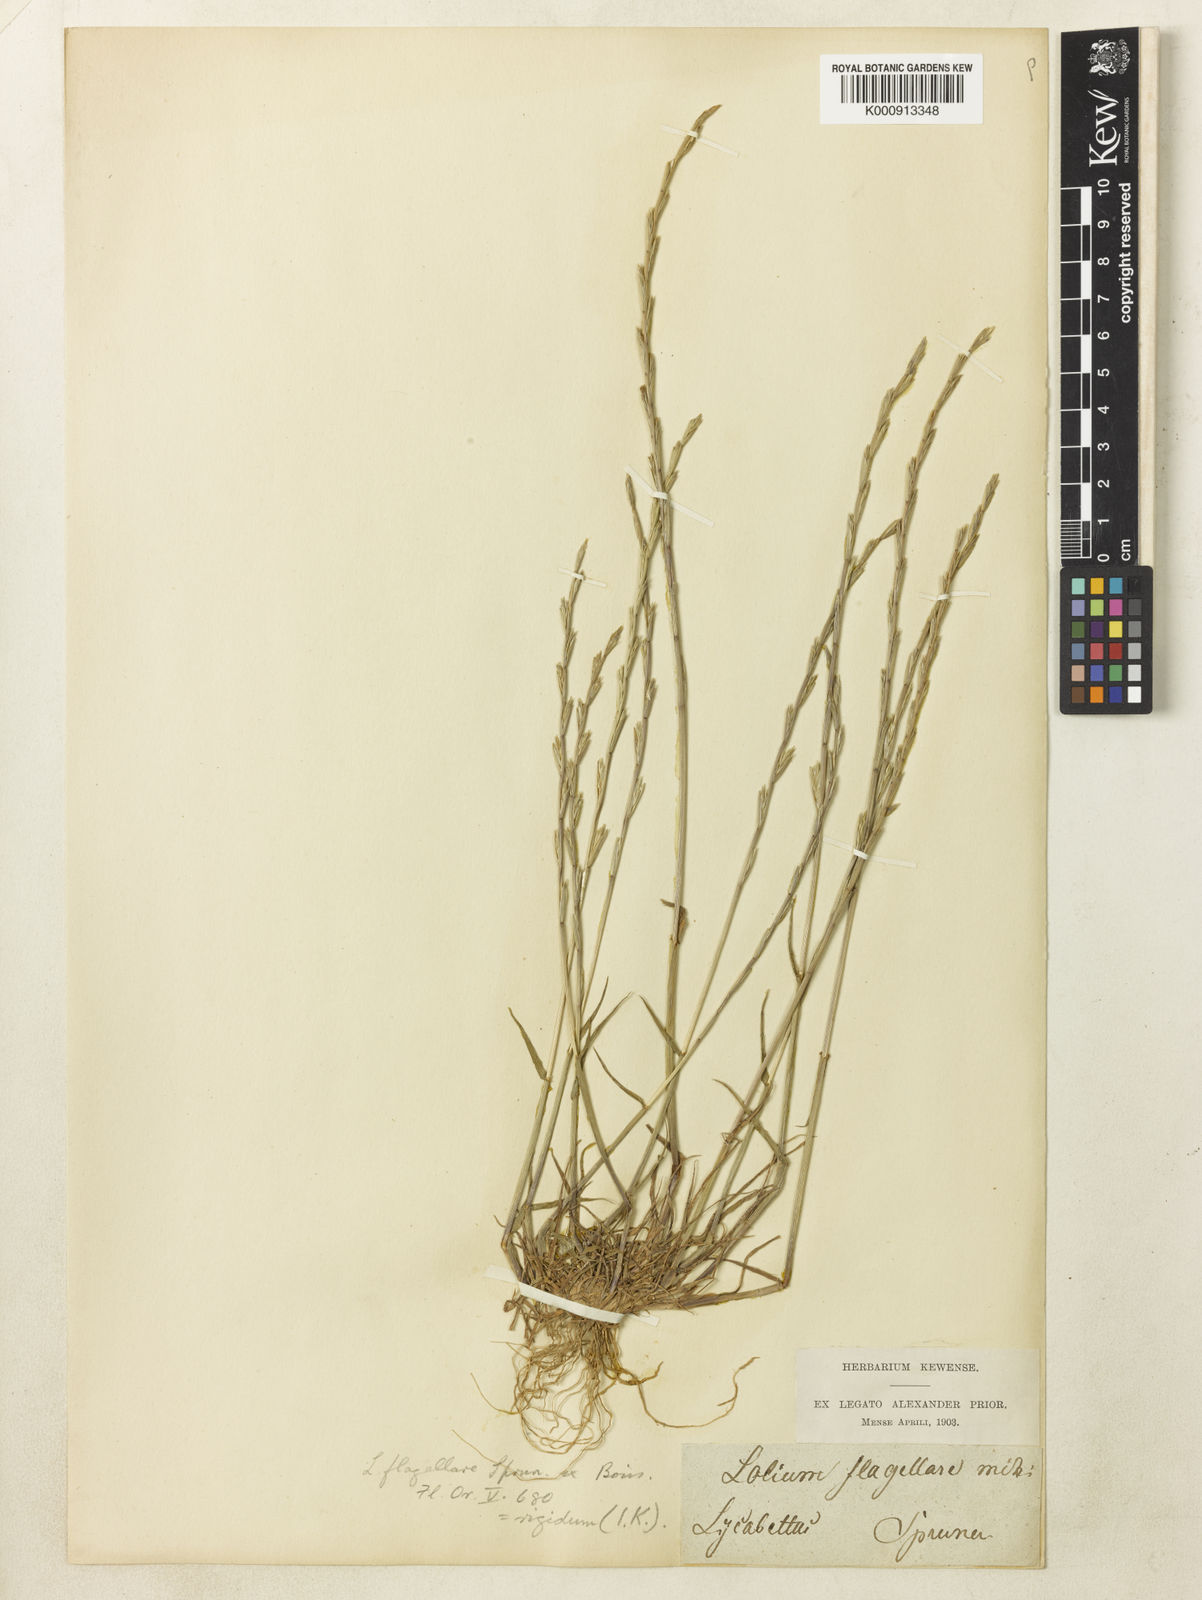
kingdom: Plantae
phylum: Tracheophyta
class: Liliopsida
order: Poales
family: Poaceae
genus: Lolium
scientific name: Lolium rigidum
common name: Wimmera ryegrass
